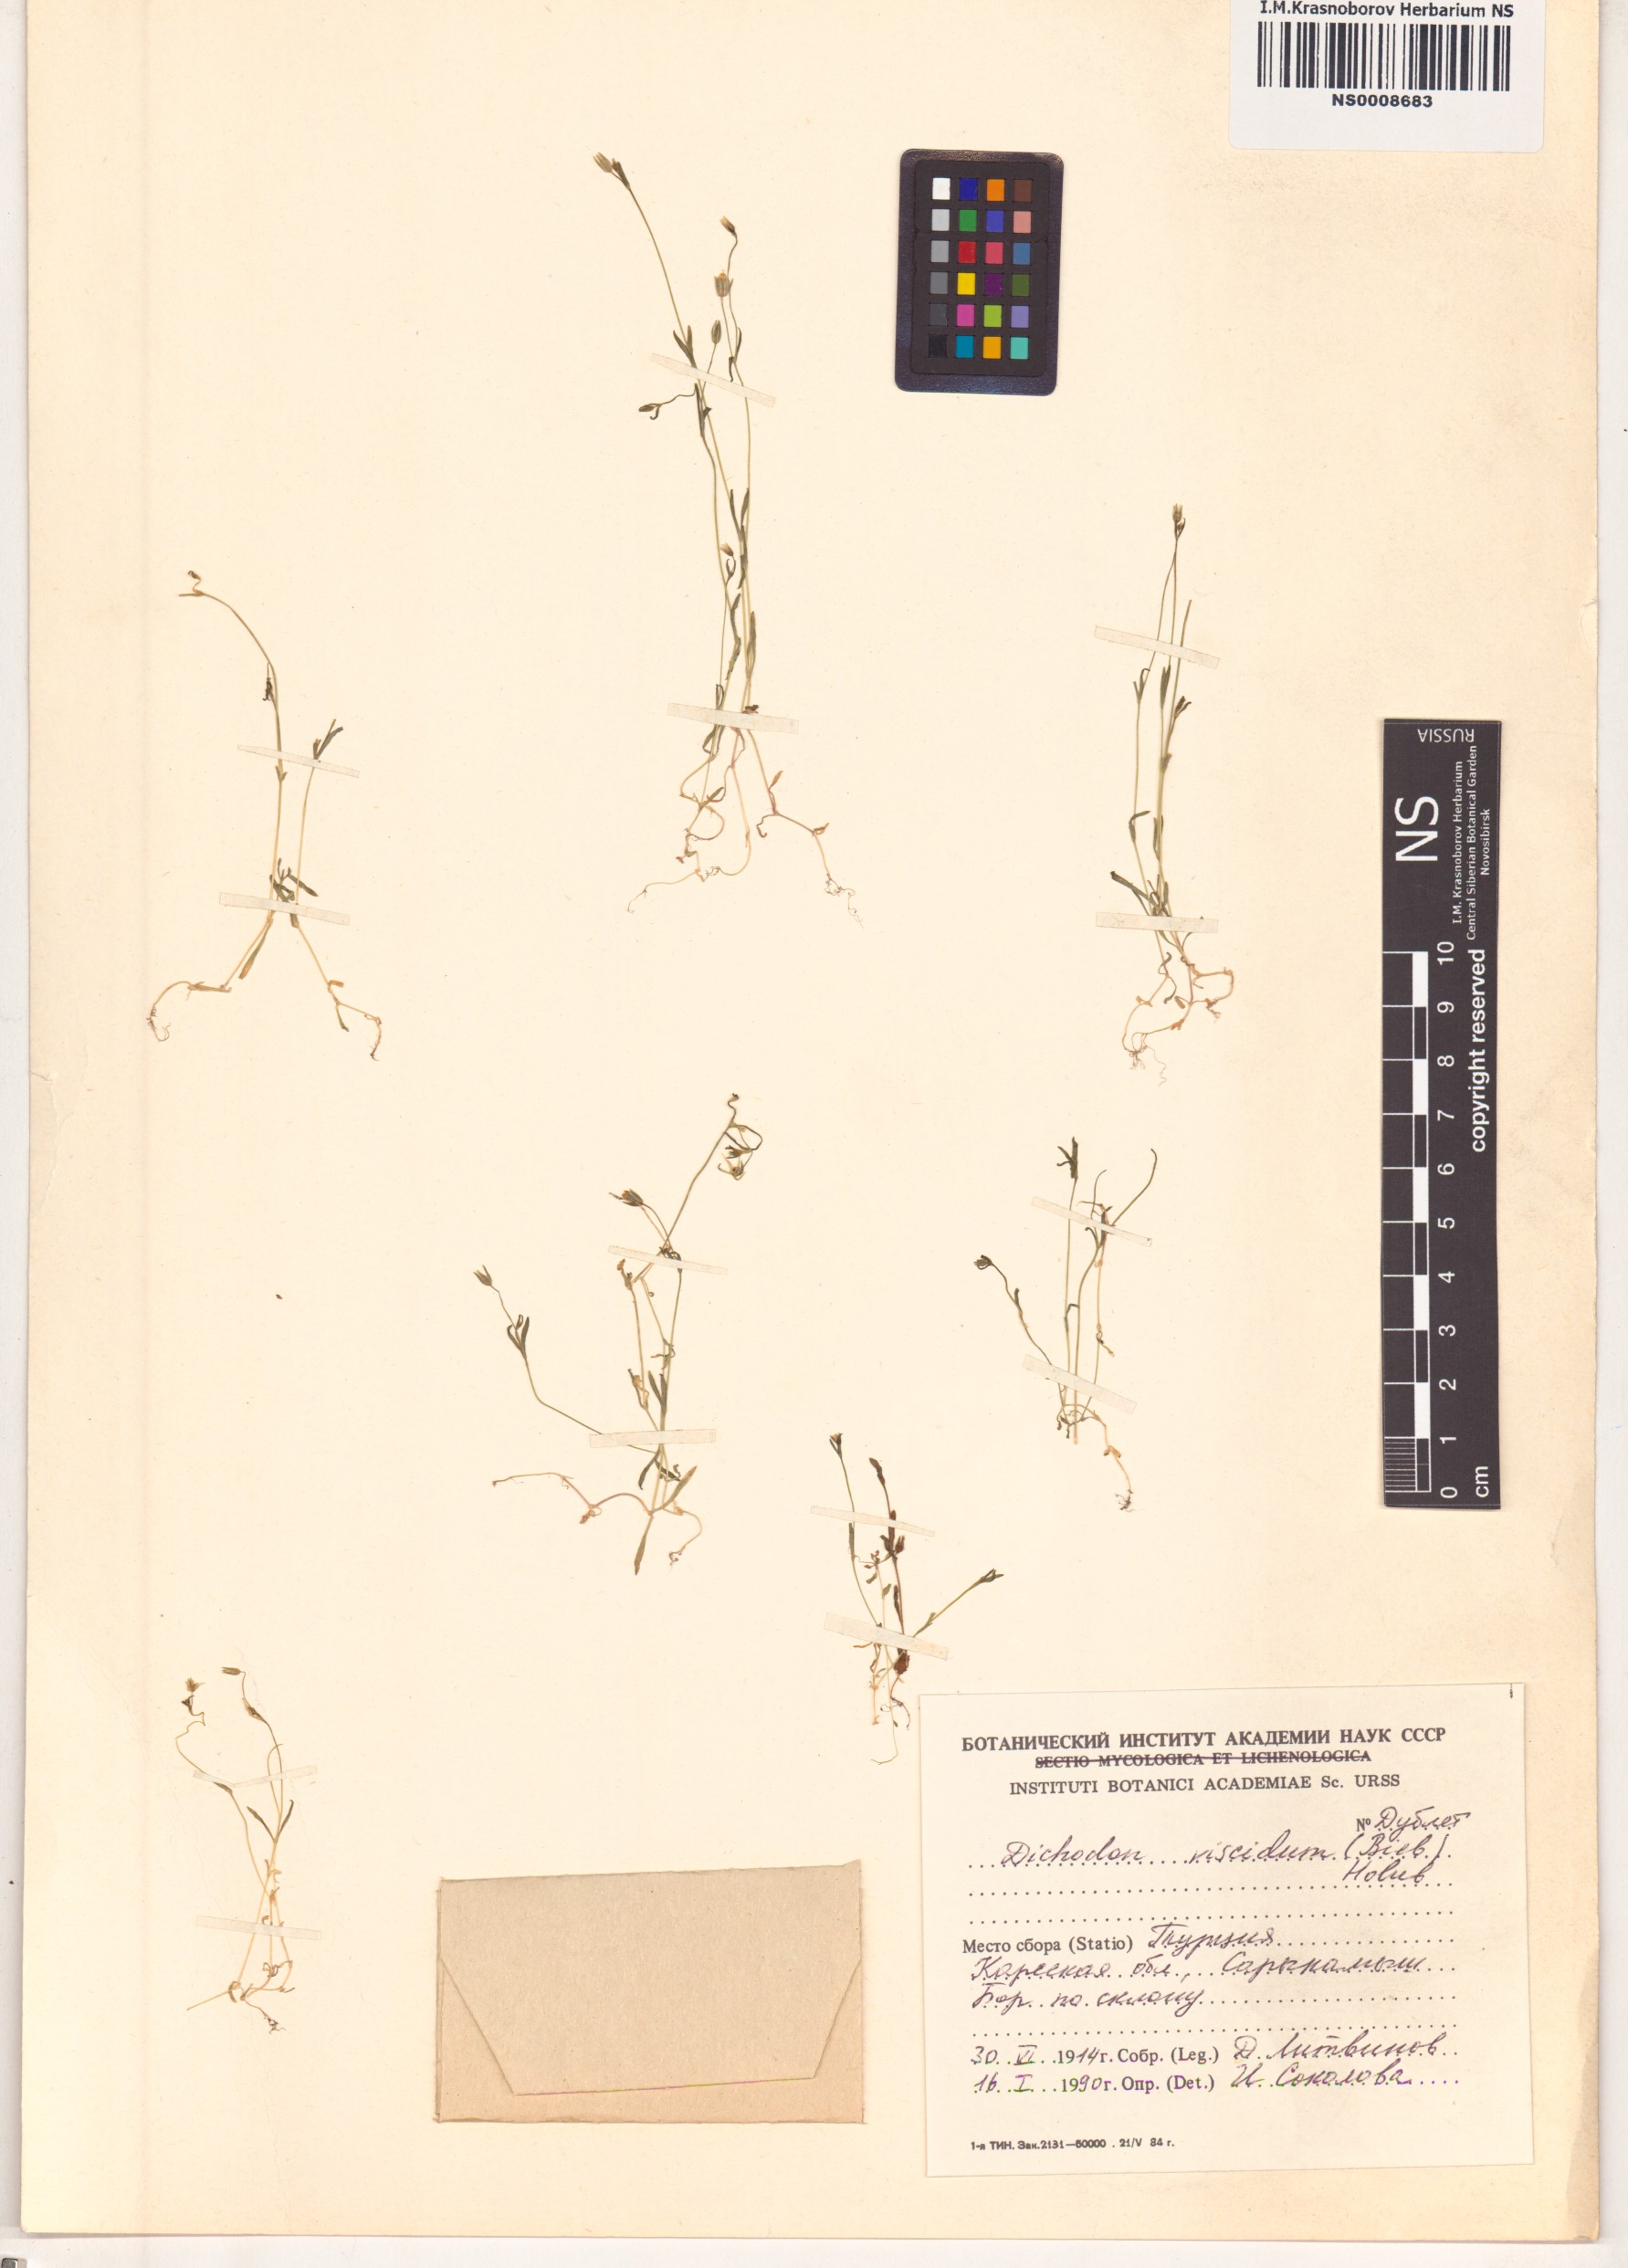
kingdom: Plantae
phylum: Tracheophyta
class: Magnoliopsida
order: Caryophyllales
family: Caryophyllaceae
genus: Dichodon
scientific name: Dichodon viscidum
